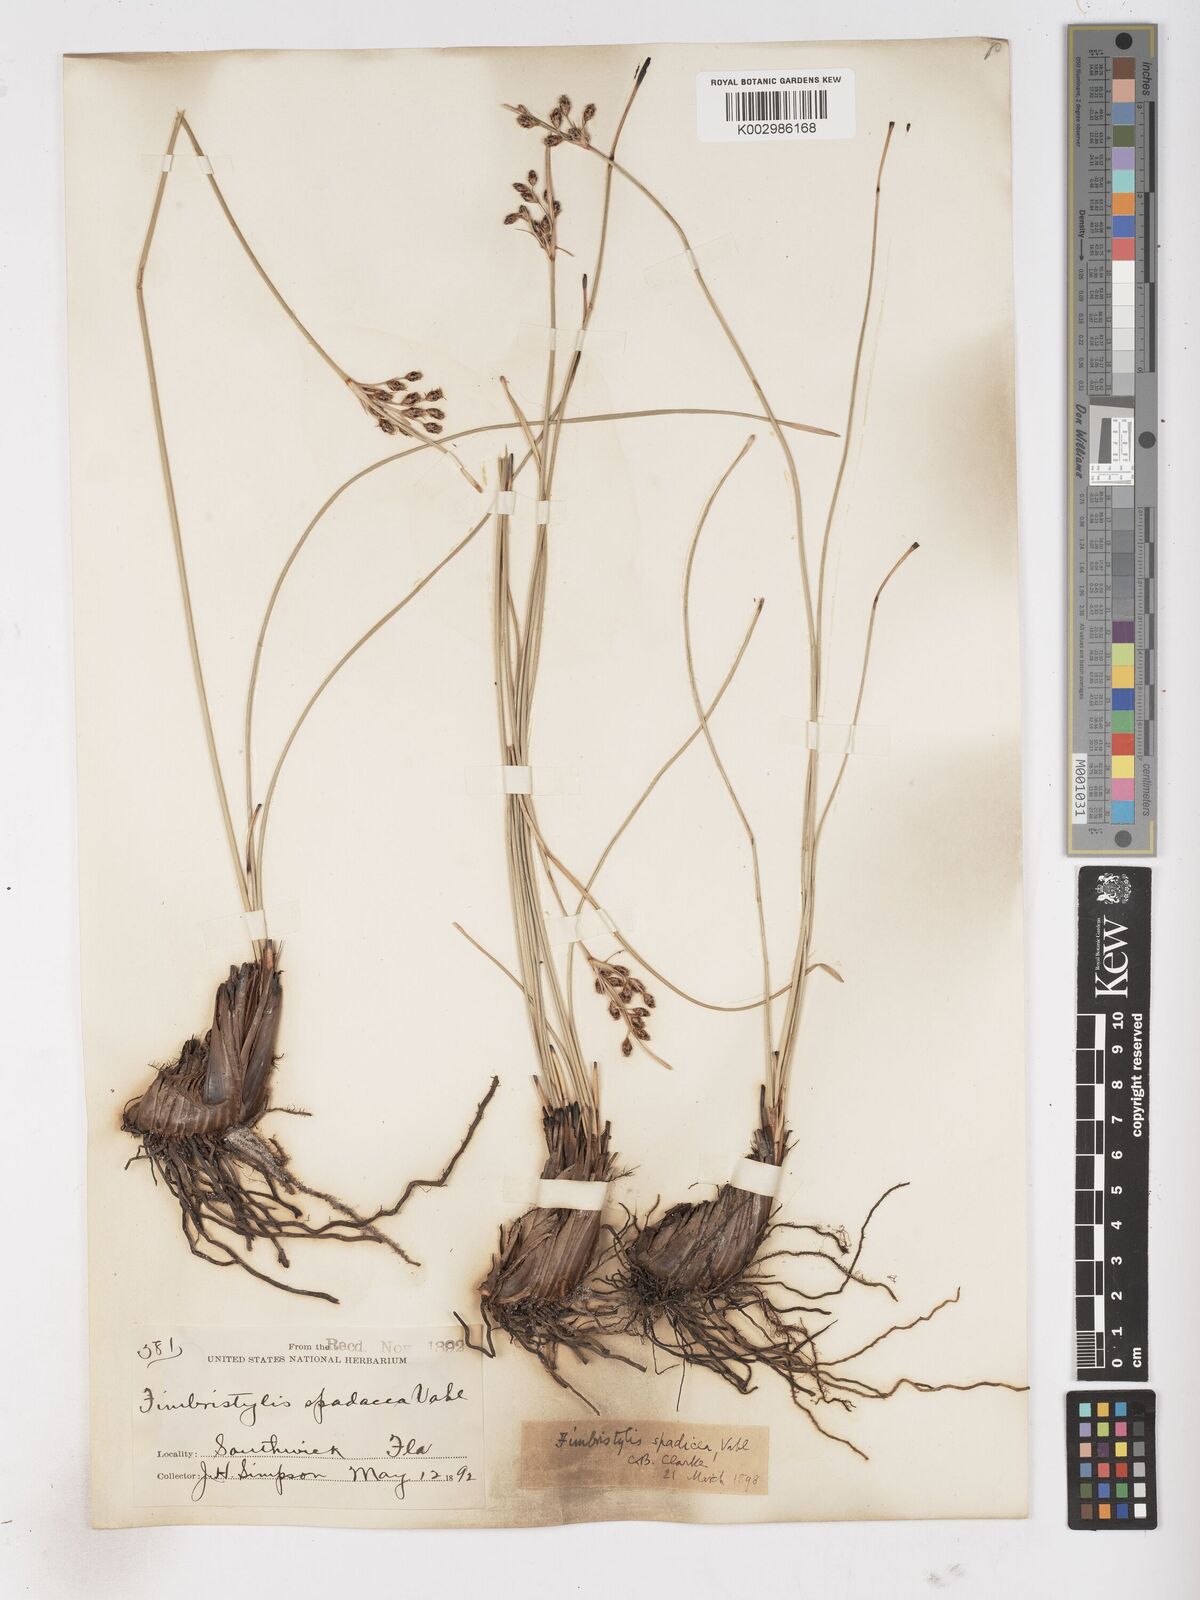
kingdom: Plantae
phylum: Tracheophyta
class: Liliopsida
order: Poales
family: Cyperaceae
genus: Fimbristylis
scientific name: Fimbristylis spadicea
